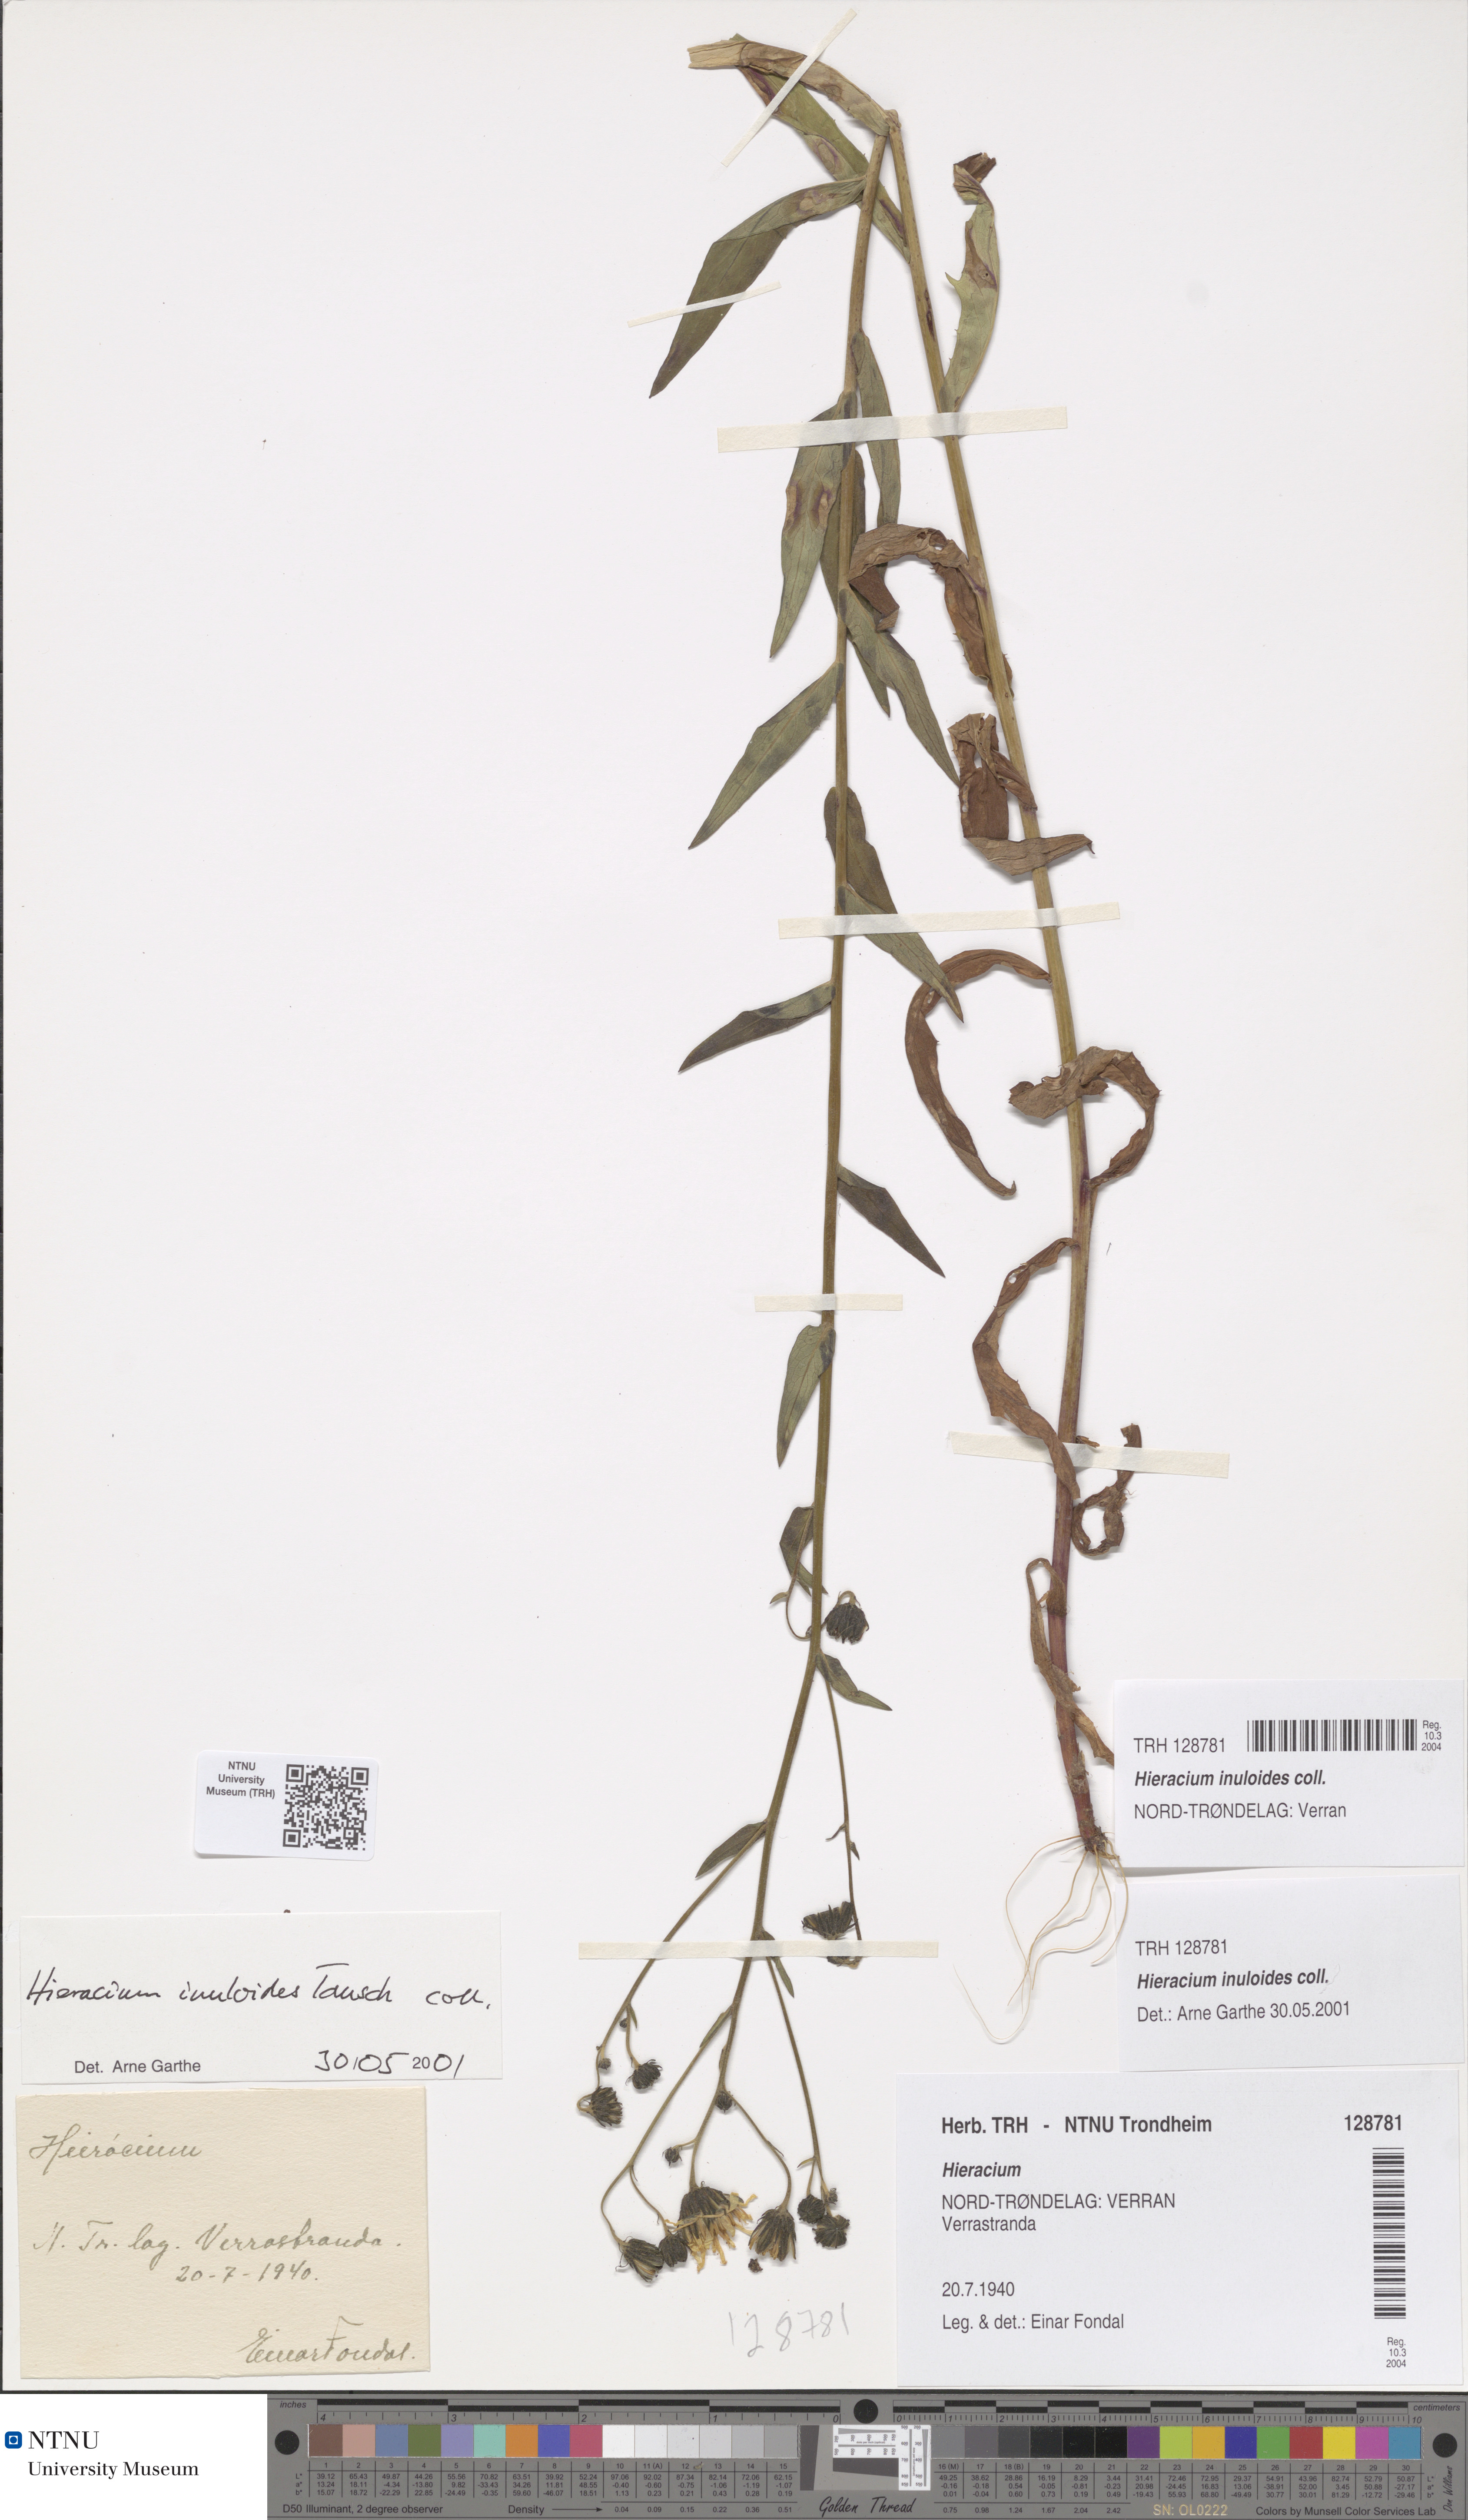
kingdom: Plantae
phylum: Tracheophyta
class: Magnoliopsida
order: Asterales
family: Asteraceae
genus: Hieracium
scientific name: Hieracium inuloides
